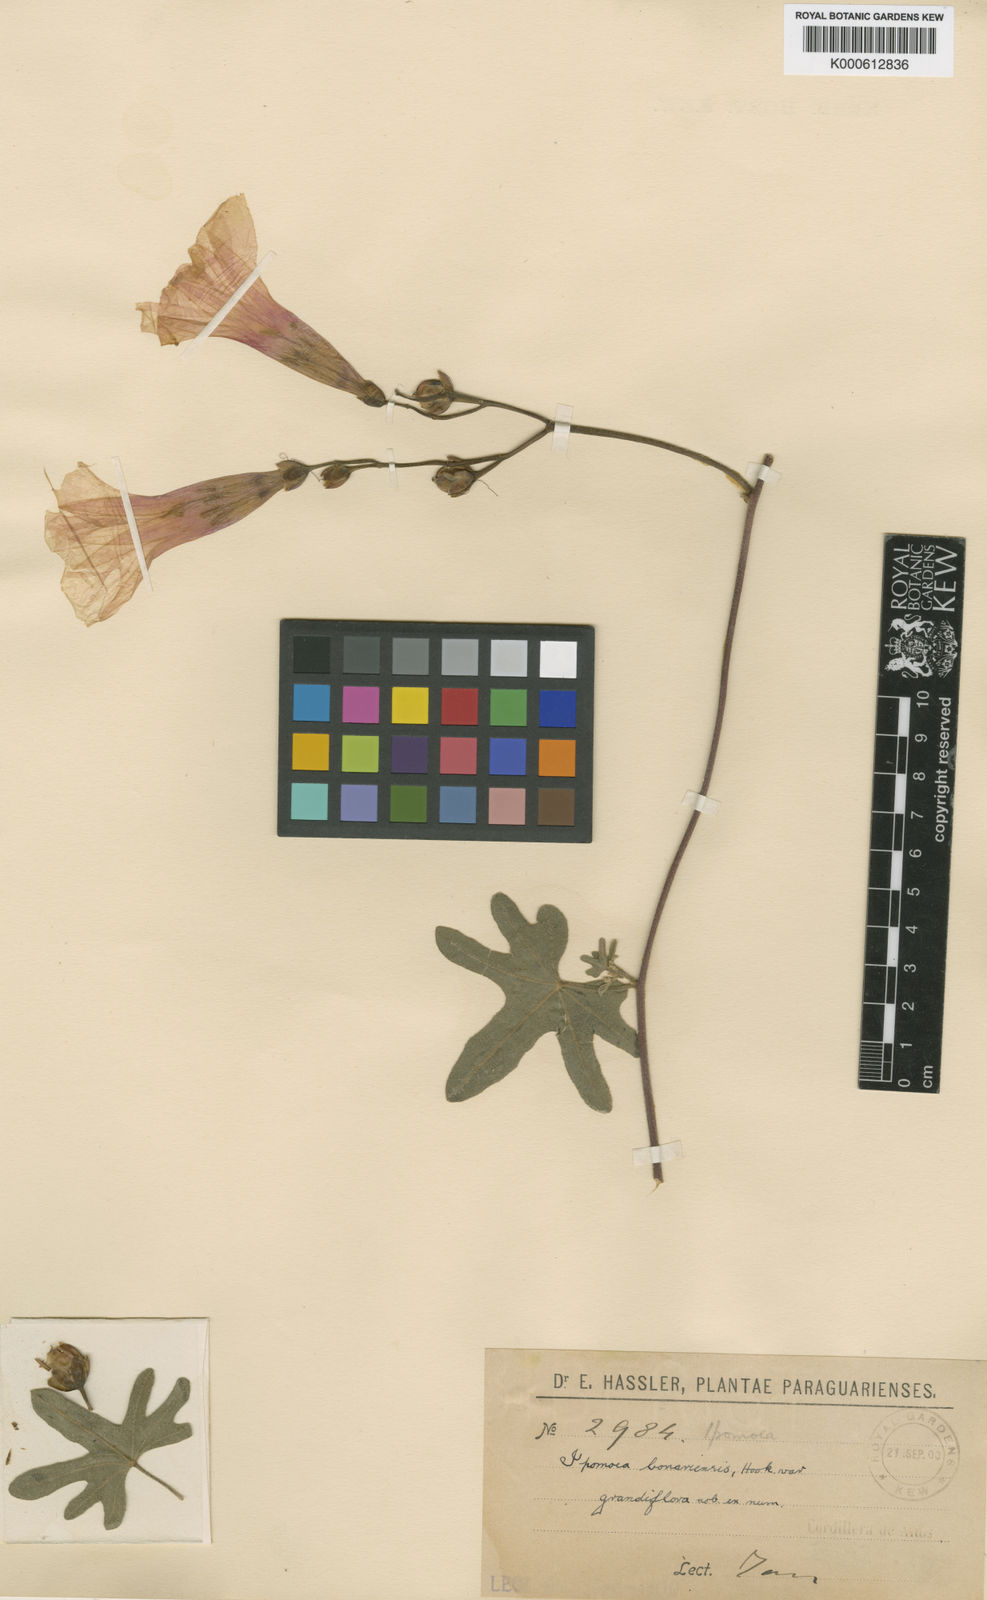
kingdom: Plantae
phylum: Tracheophyta
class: Magnoliopsida
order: Solanales
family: Convolvulaceae
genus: Ipomoea
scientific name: Ipomoea bonariensis
